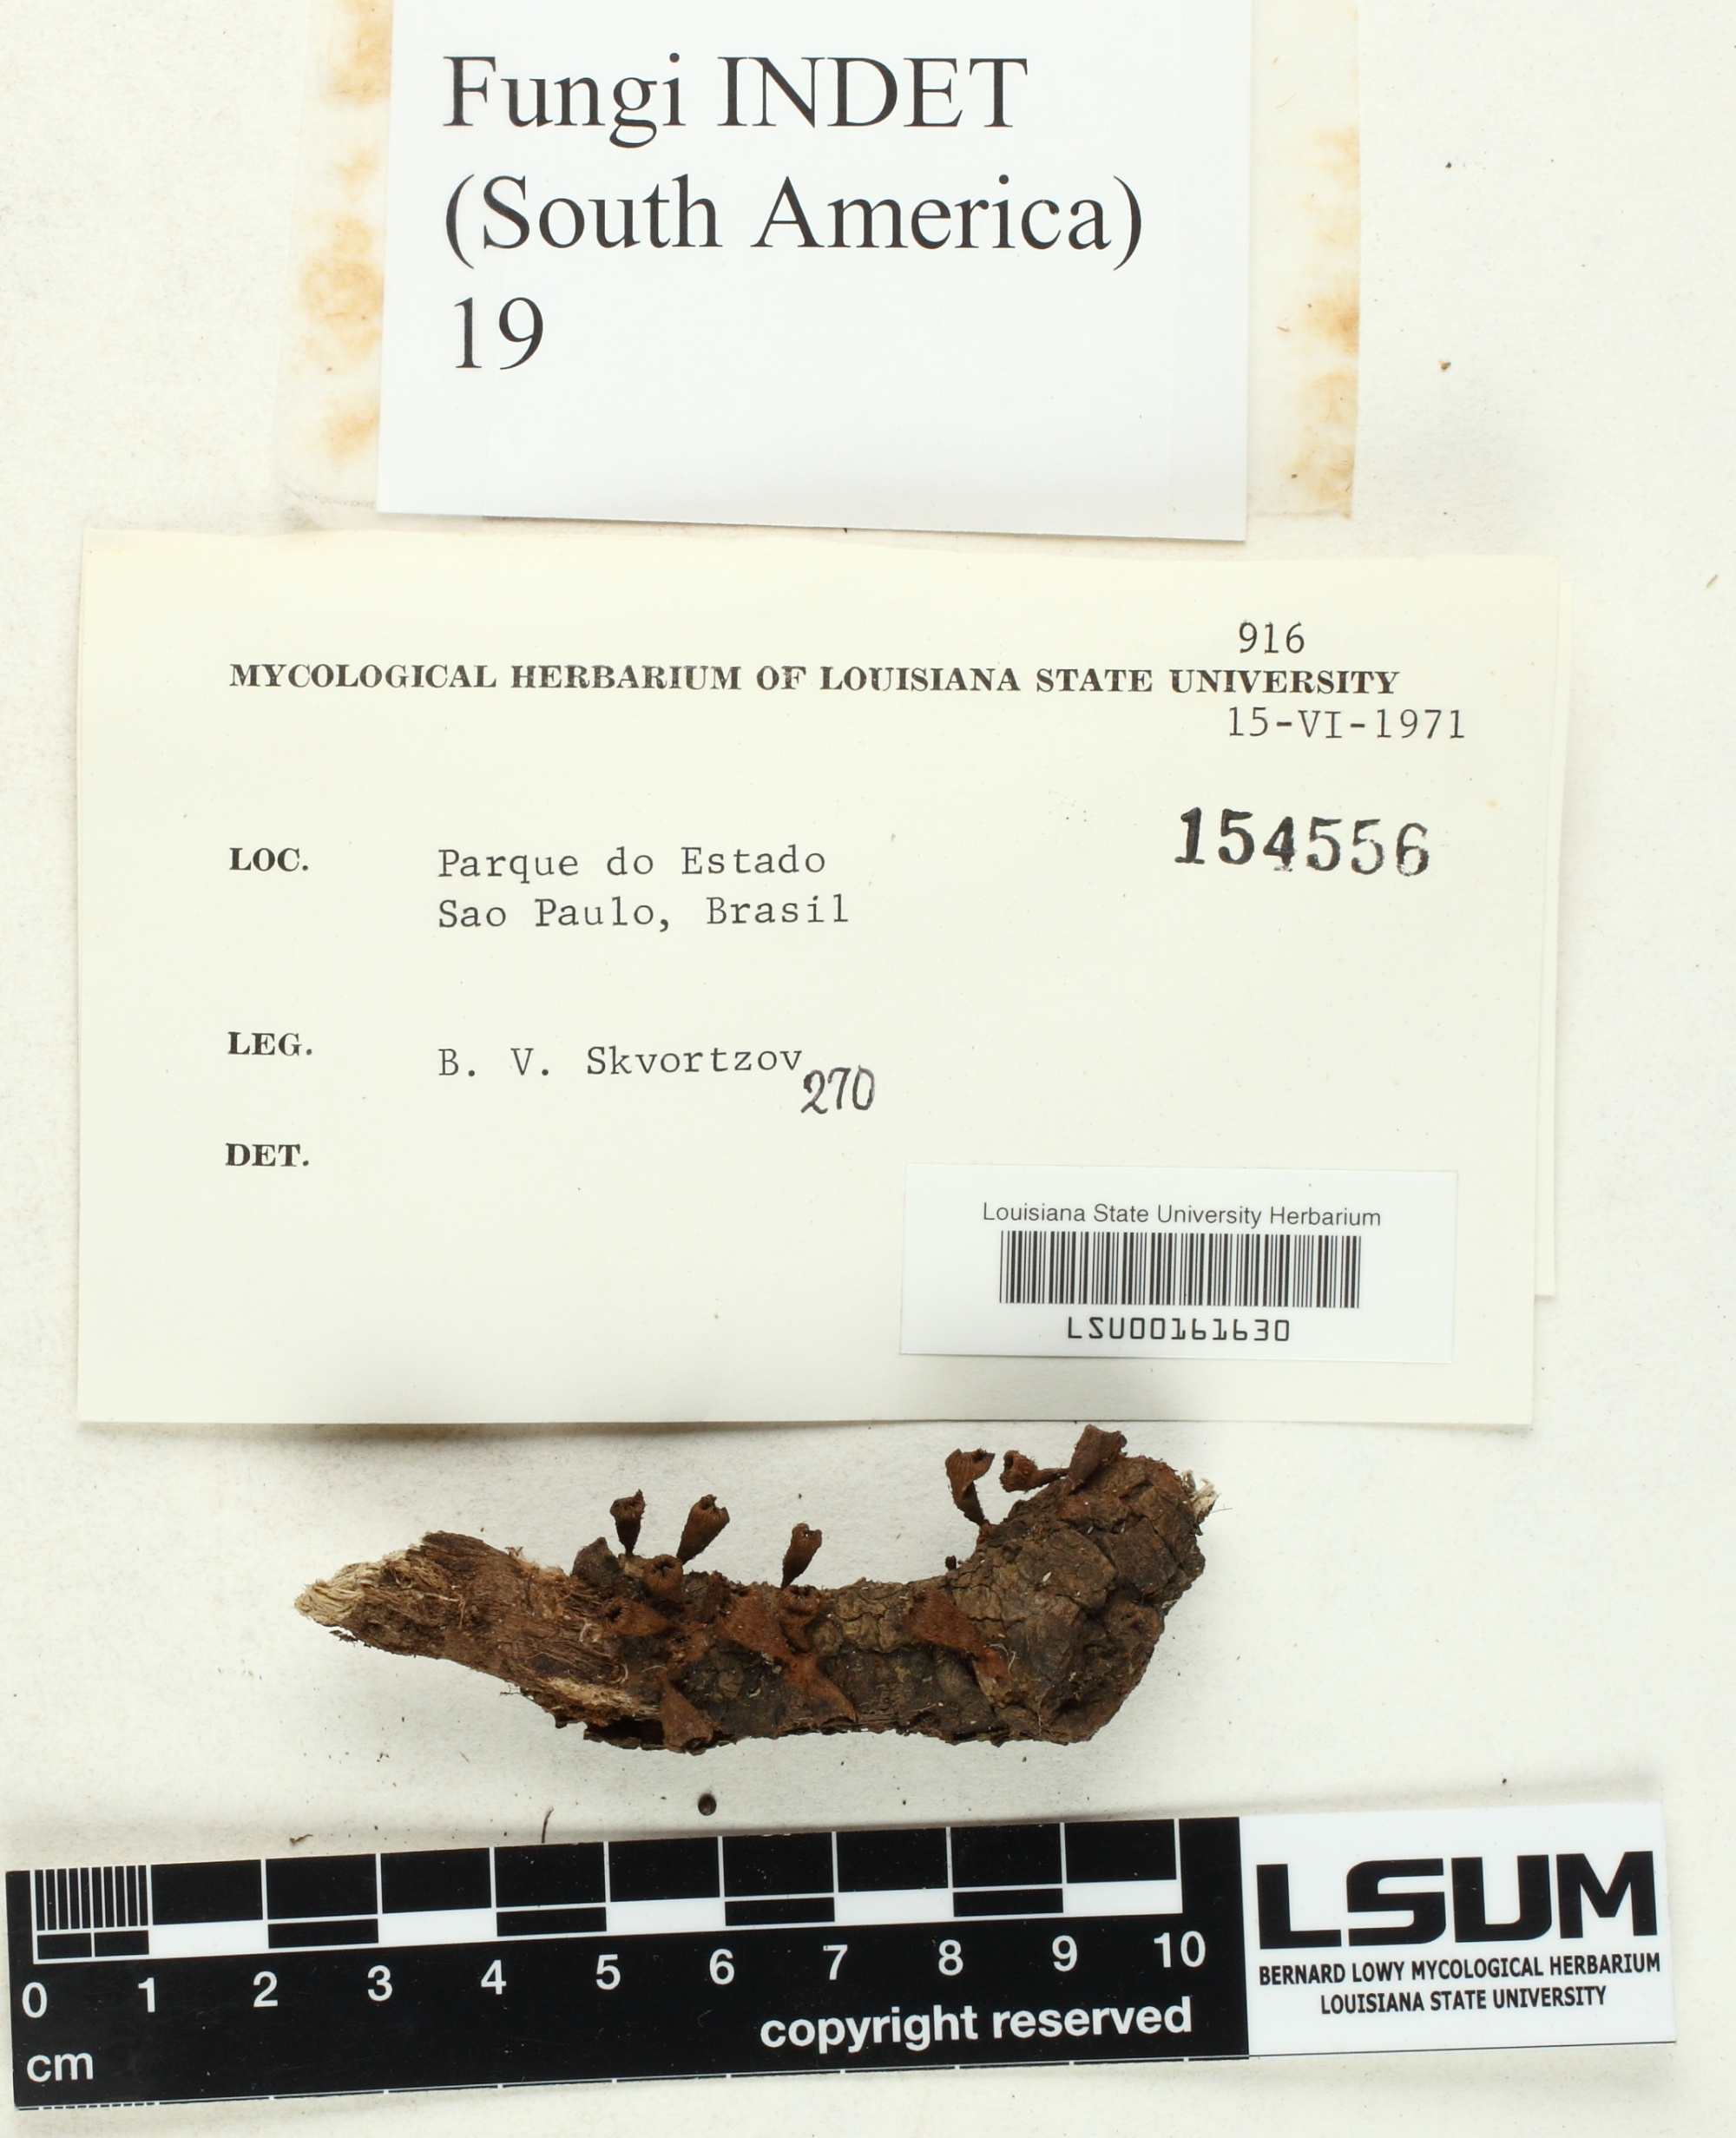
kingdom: Fungi
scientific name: Fungi
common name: Fungi
